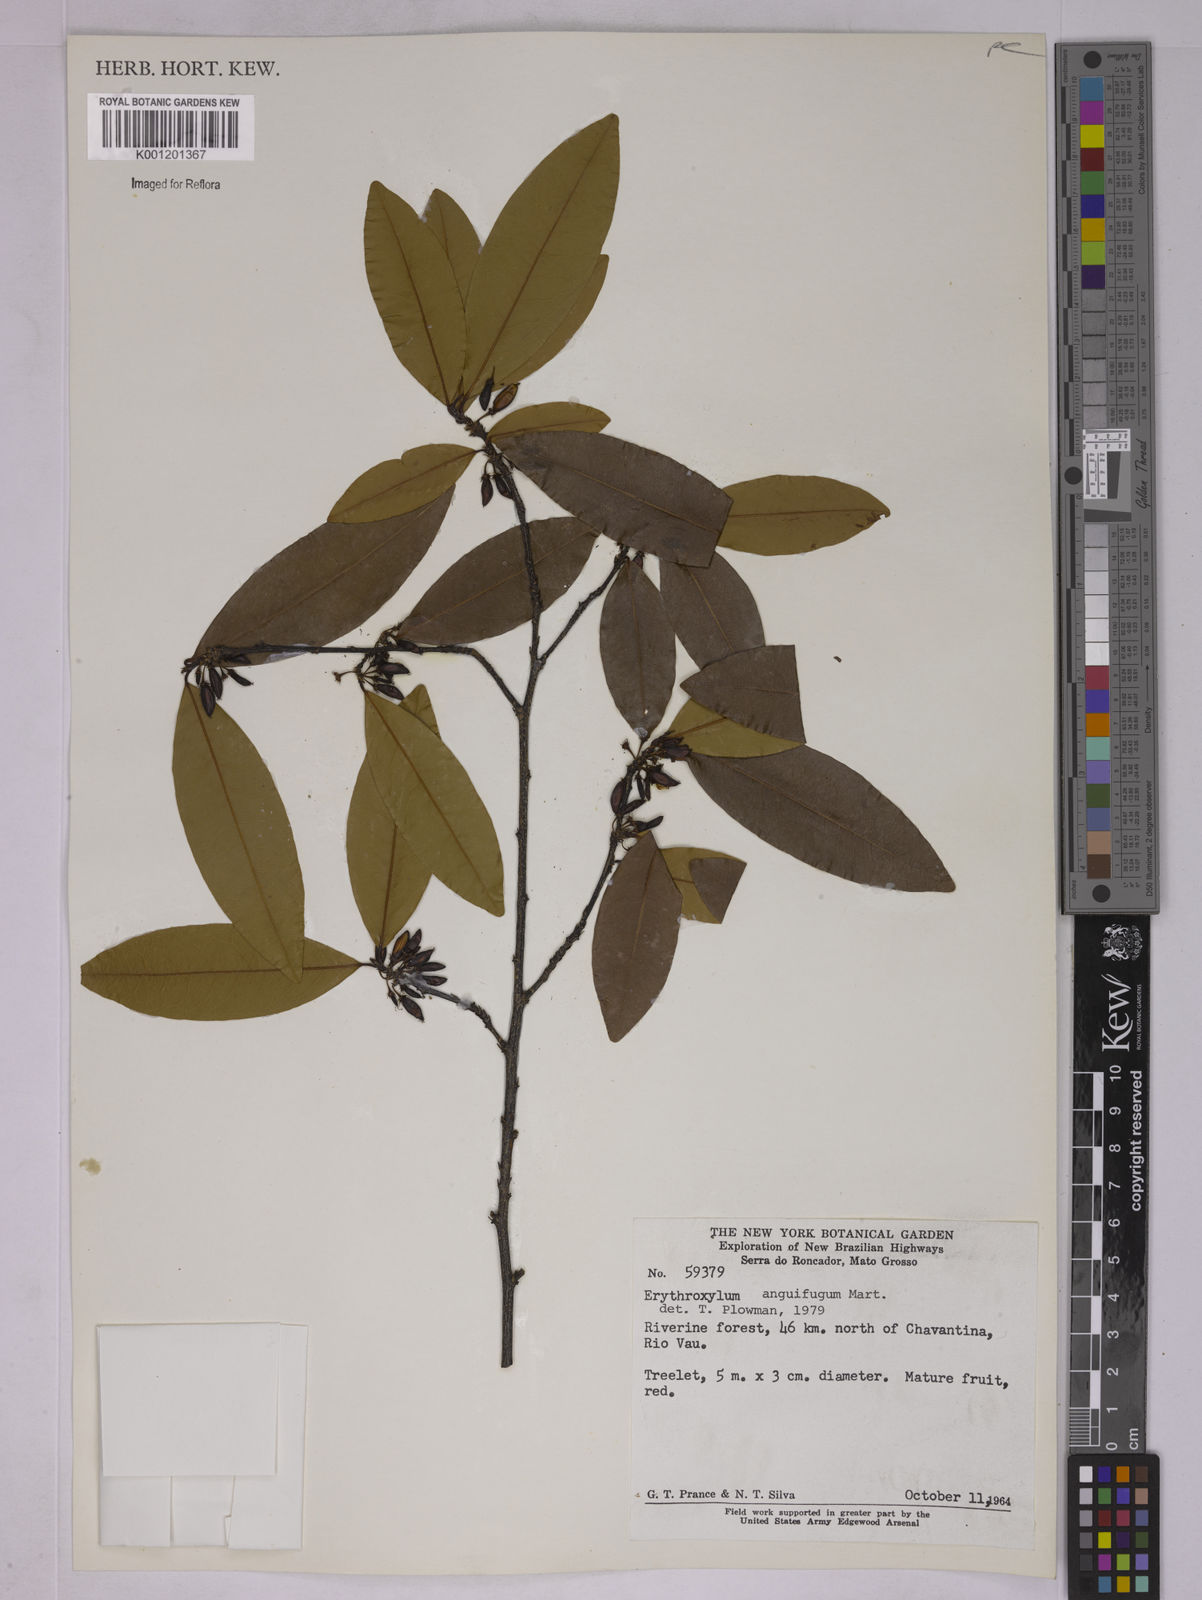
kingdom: Plantae
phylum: Tracheophyta
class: Magnoliopsida
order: Malpighiales
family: Erythroxylaceae
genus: Erythroxylum
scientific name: Erythroxylum anguifugum
